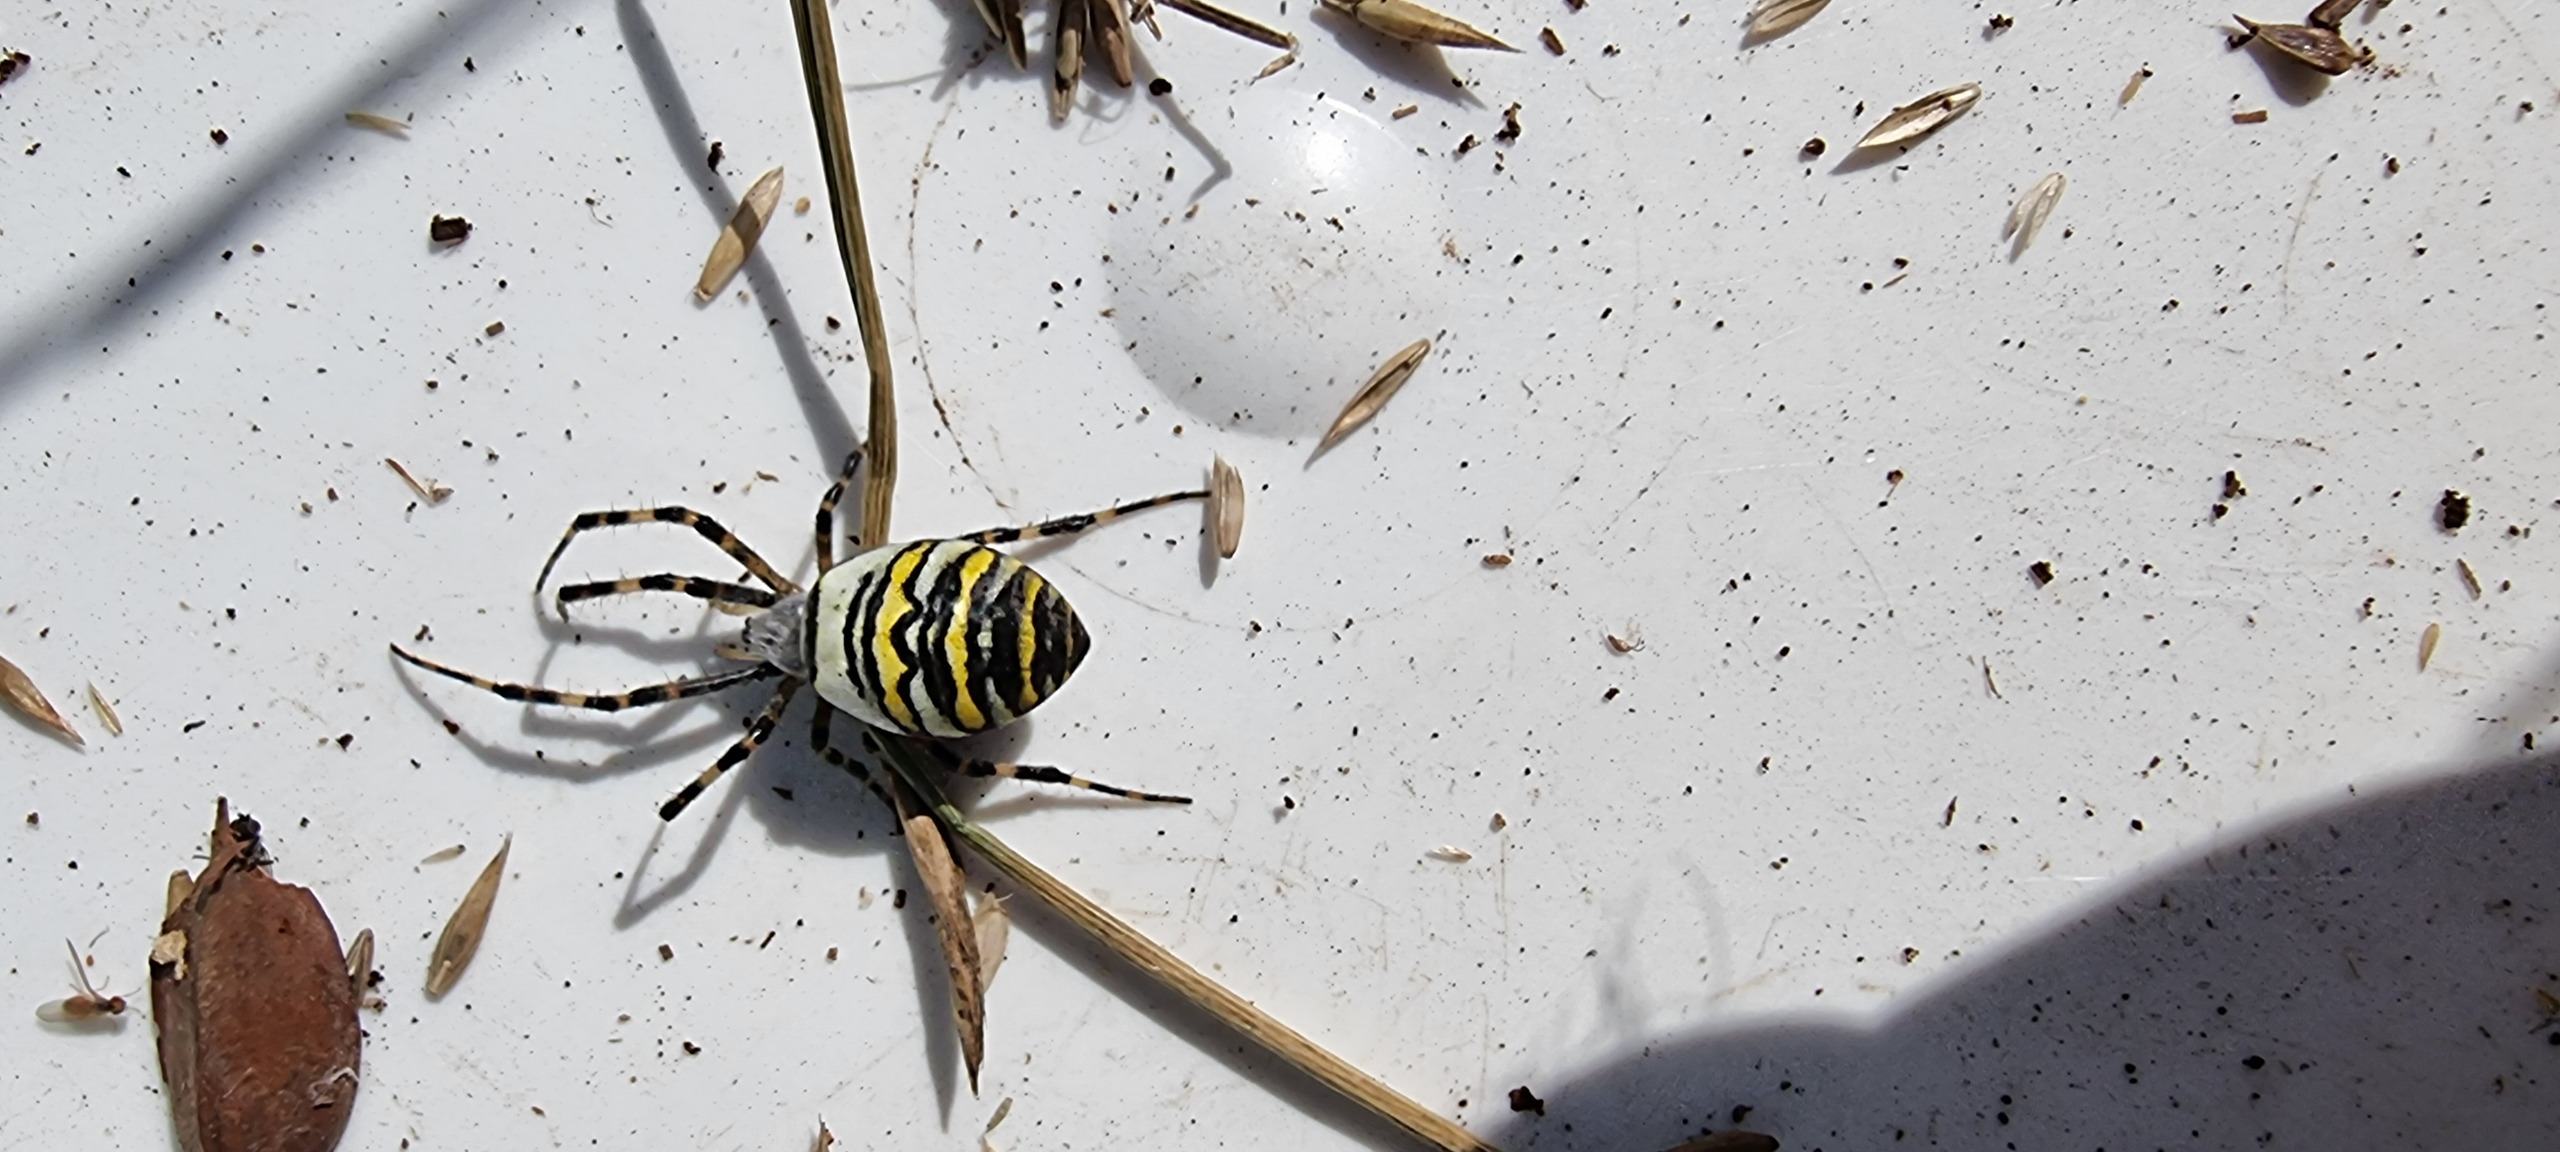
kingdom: Animalia
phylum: Arthropoda
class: Arachnida
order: Araneae
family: Araneidae
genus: Argiope
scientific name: Argiope bruennichi
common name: Hvepseedderkop
